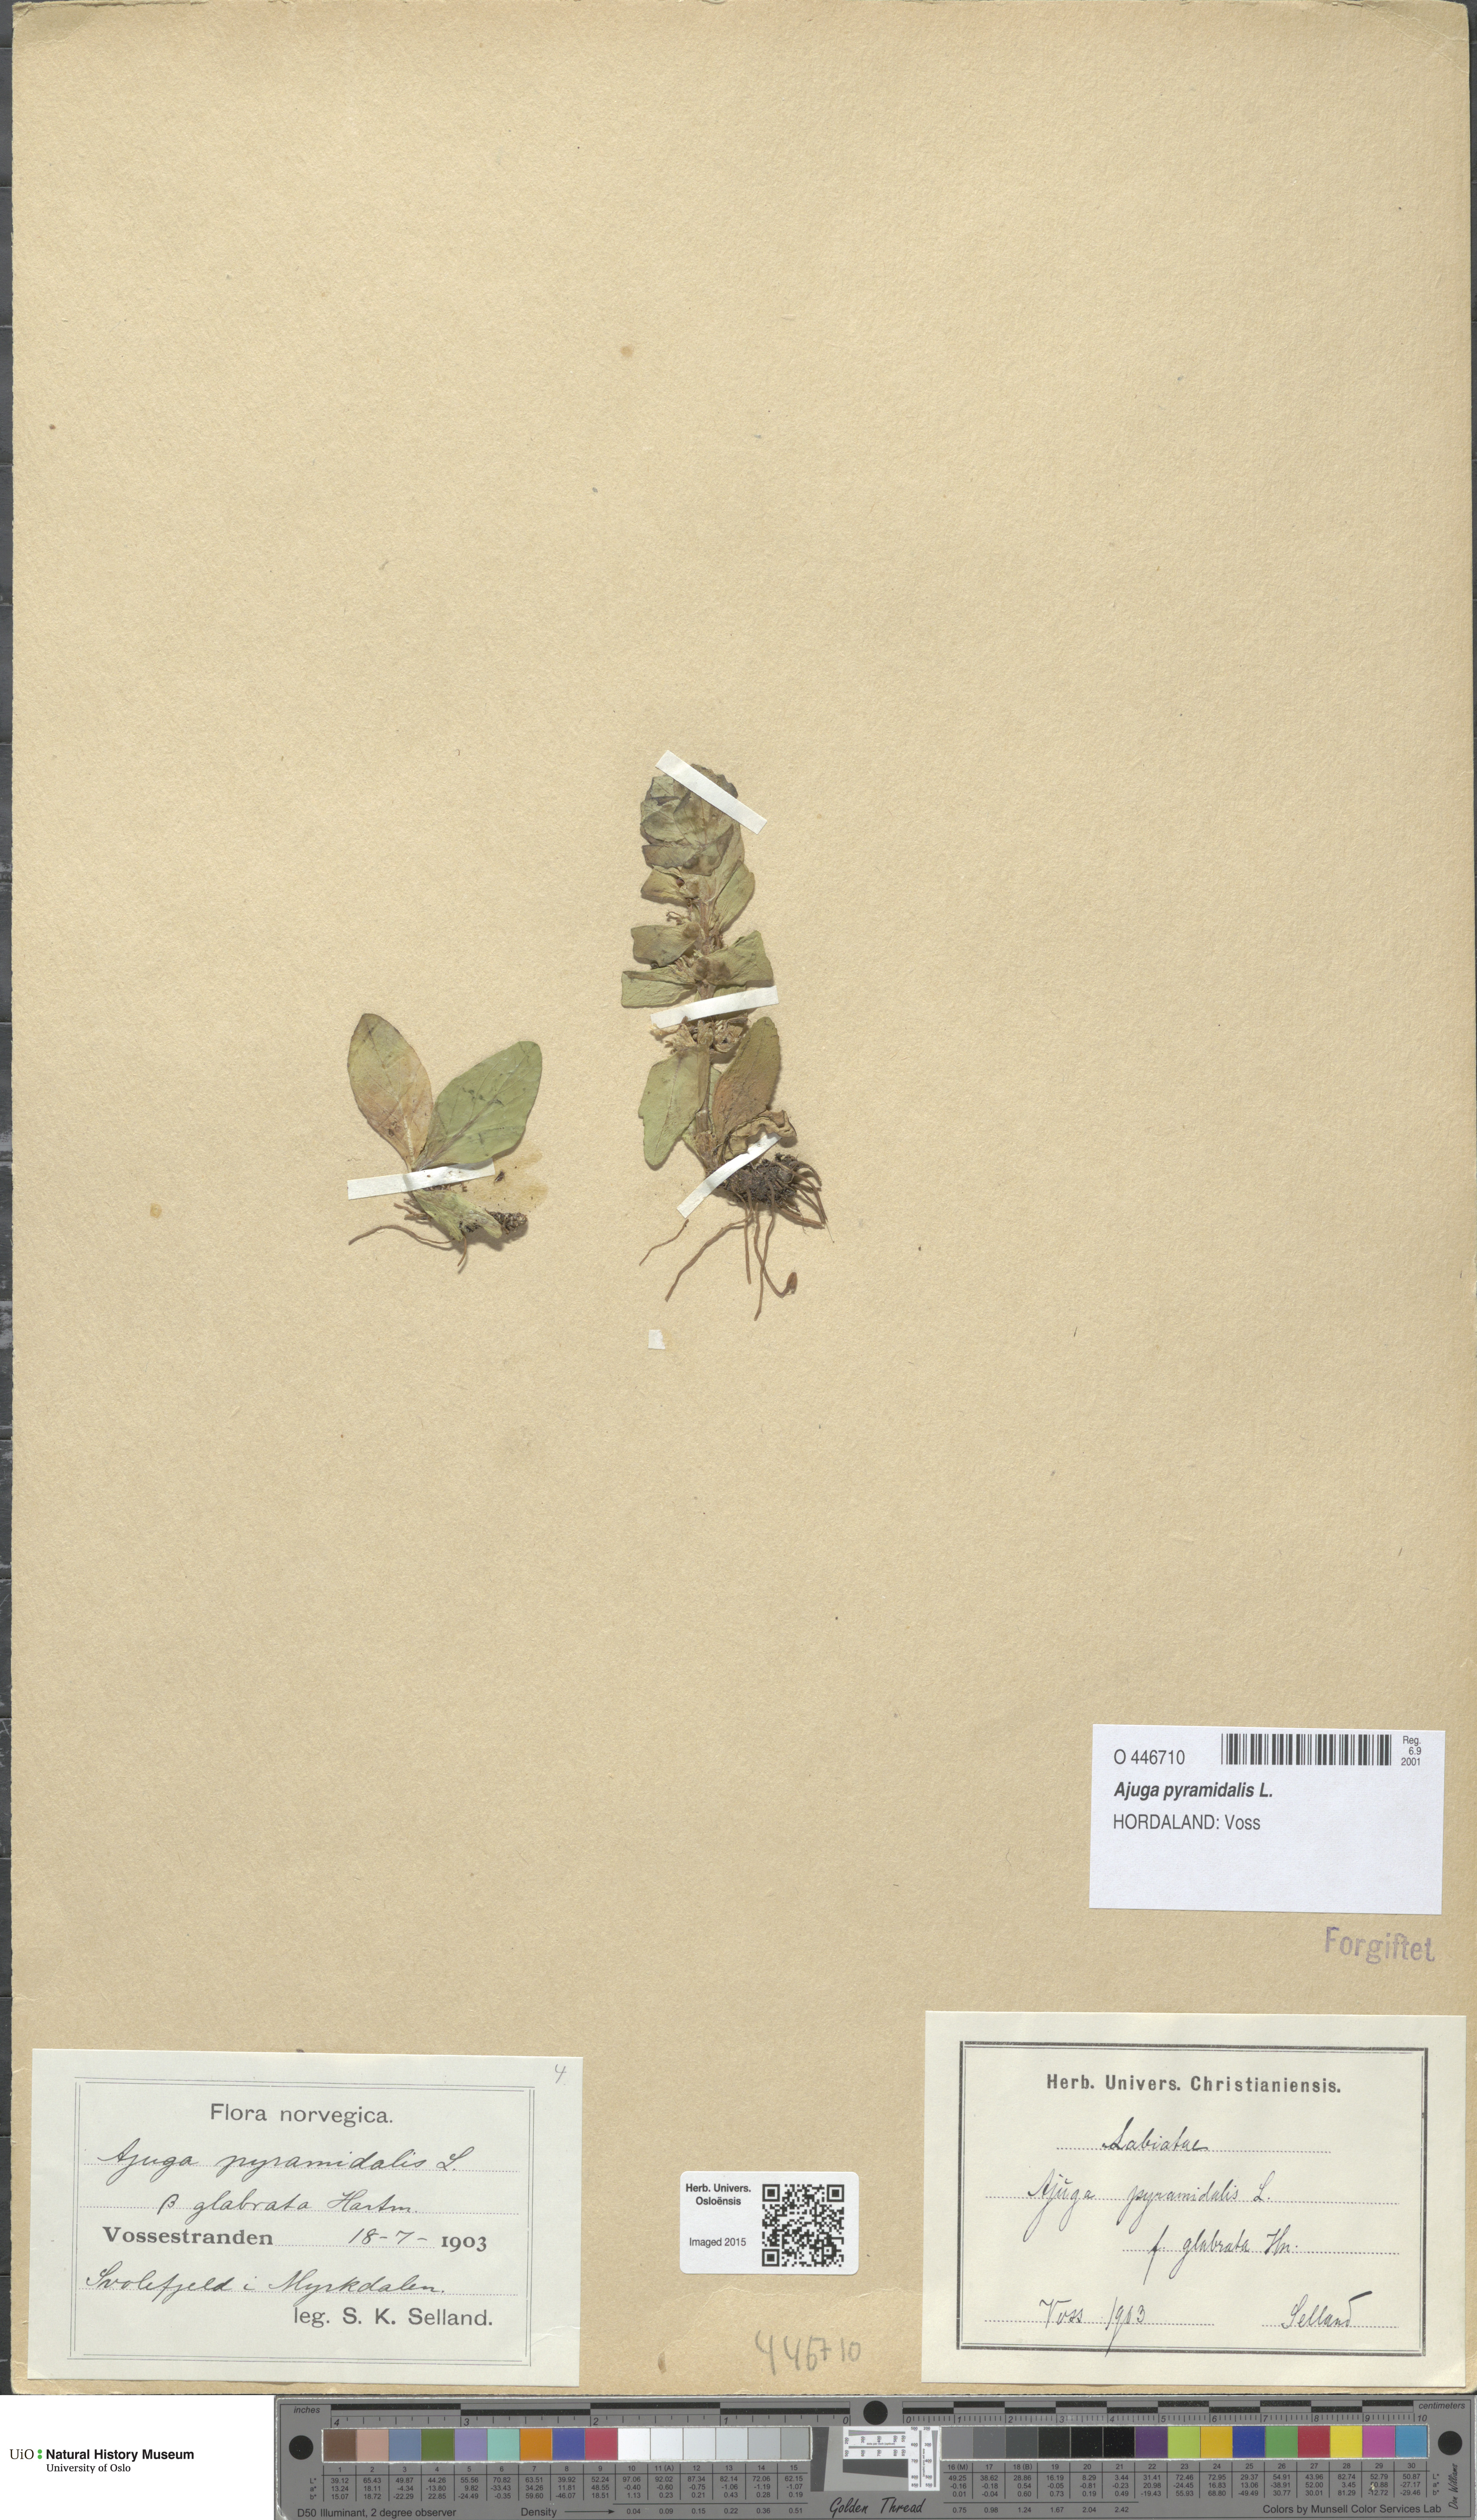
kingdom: Plantae
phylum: Tracheophyta
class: Magnoliopsida
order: Lamiales
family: Lamiaceae
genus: Ajuga
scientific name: Ajuga pyramidalis
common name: Pyramid bugle
